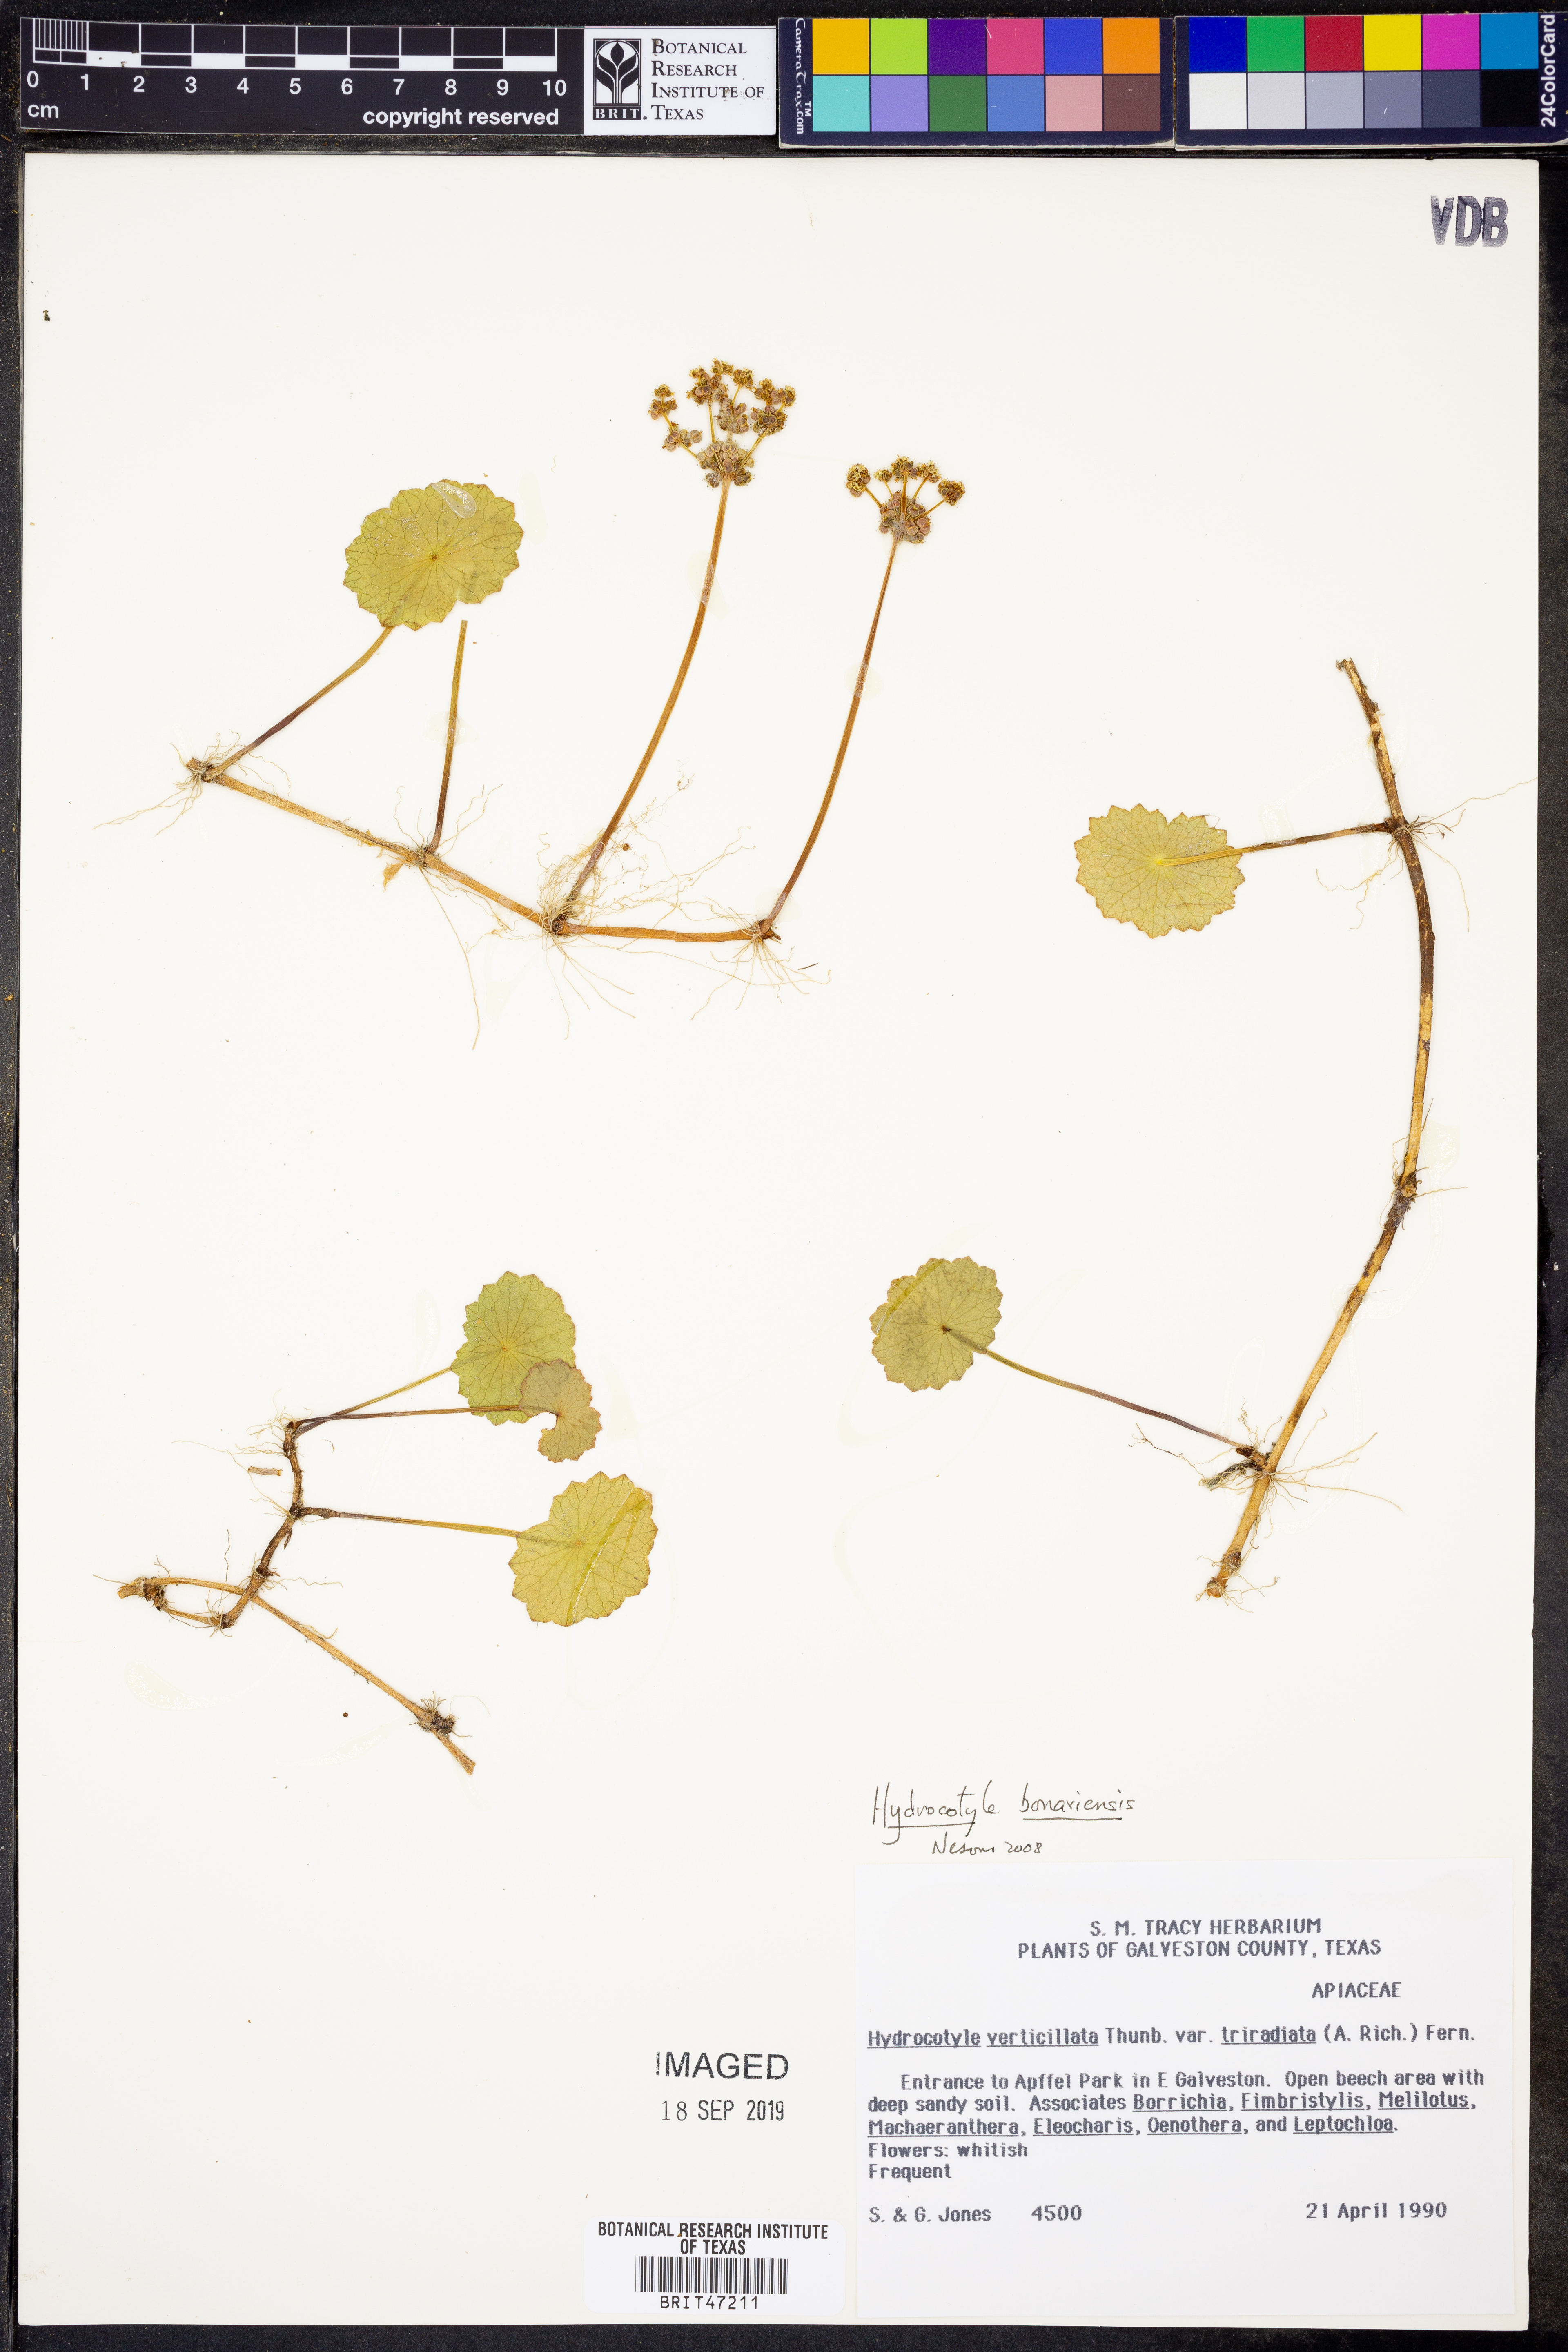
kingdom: Plantae
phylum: Tracheophyta
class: Magnoliopsida
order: Apiales
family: Araliaceae
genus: Hydrocotyle
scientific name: Hydrocotyle bonariensis
